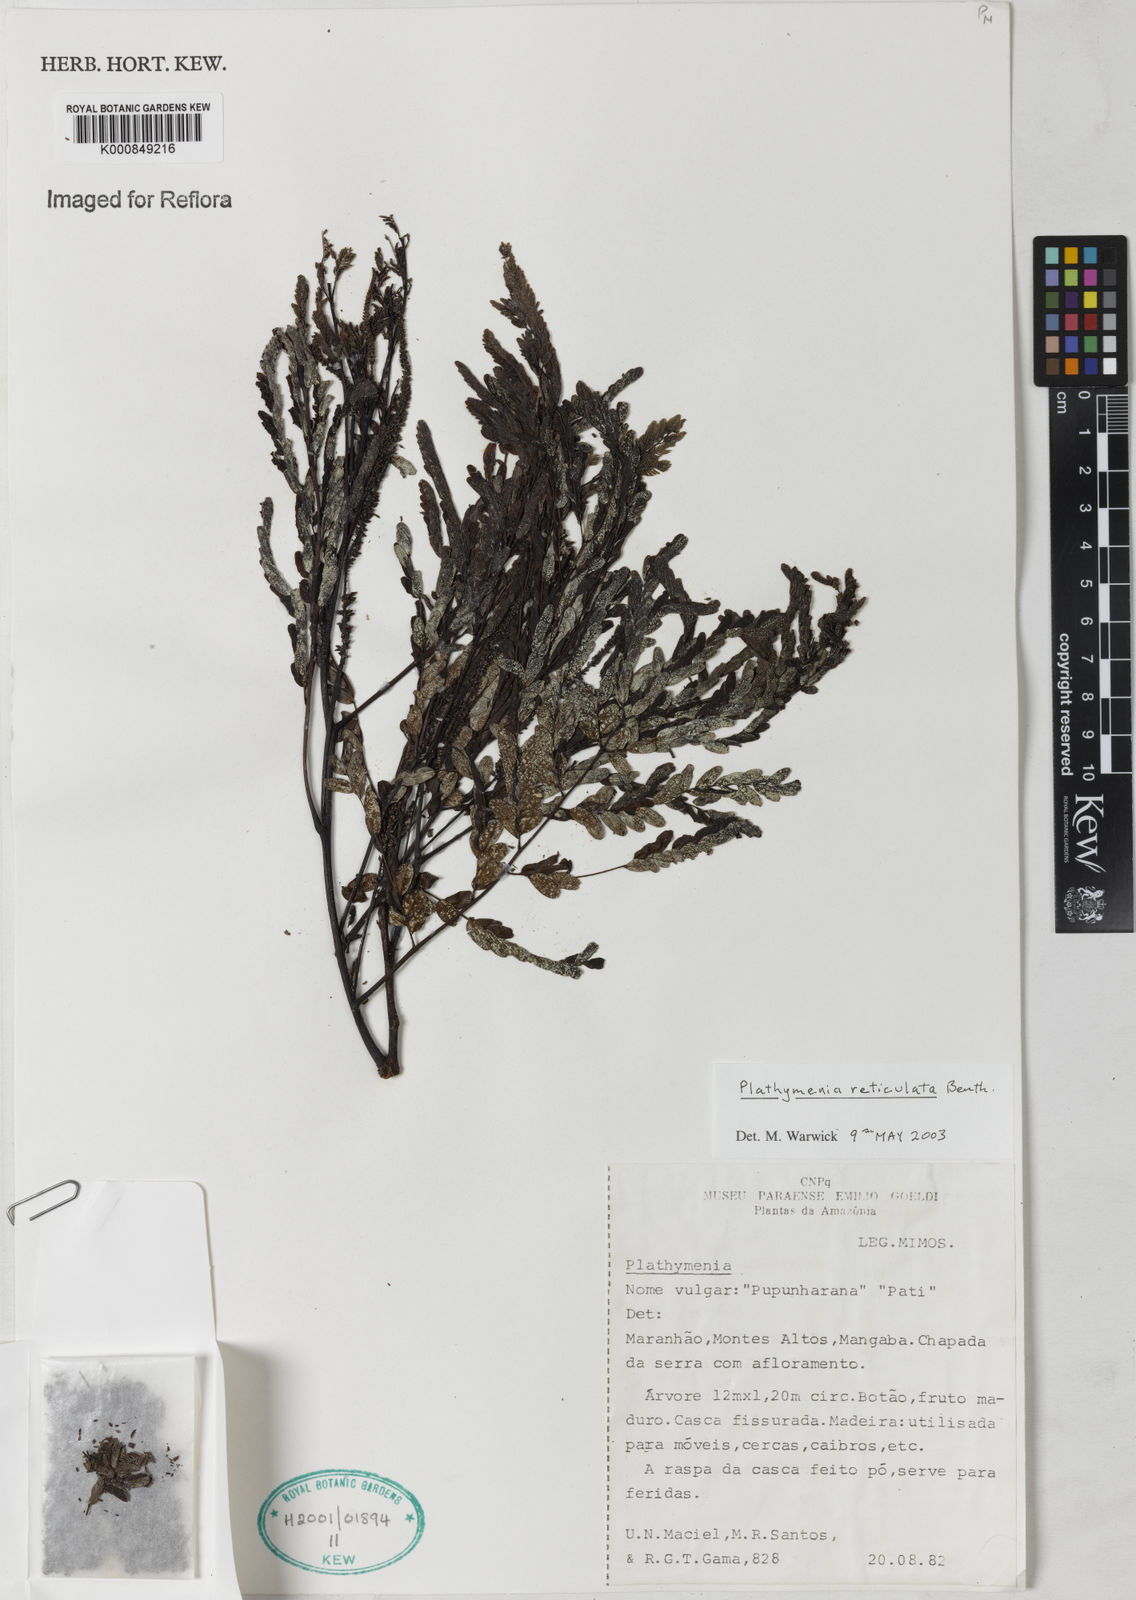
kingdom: Plantae
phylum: Tracheophyta
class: Magnoliopsida
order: Fabales
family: Fabaceae
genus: Plathymenia
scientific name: Plathymenia reticulata
